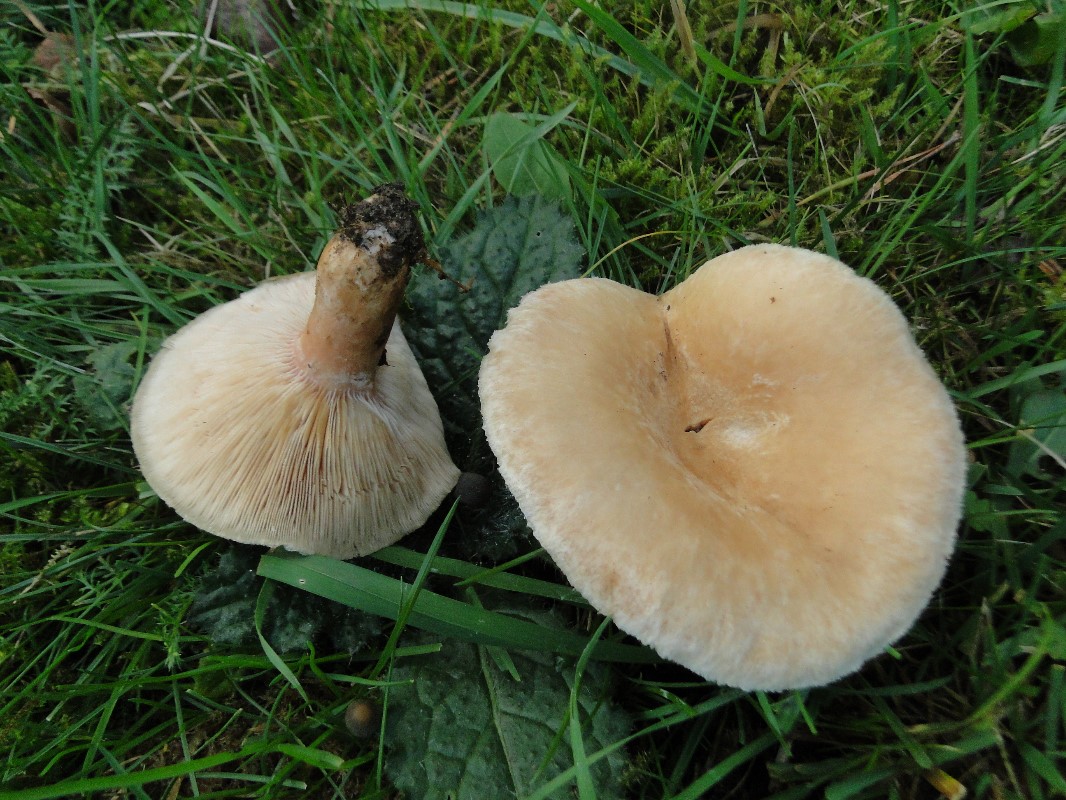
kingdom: Fungi
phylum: Basidiomycota
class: Agaricomycetes
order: Russulales
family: Russulaceae
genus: Lactarius
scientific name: Lactarius pubescens
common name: dunet mælkehat
